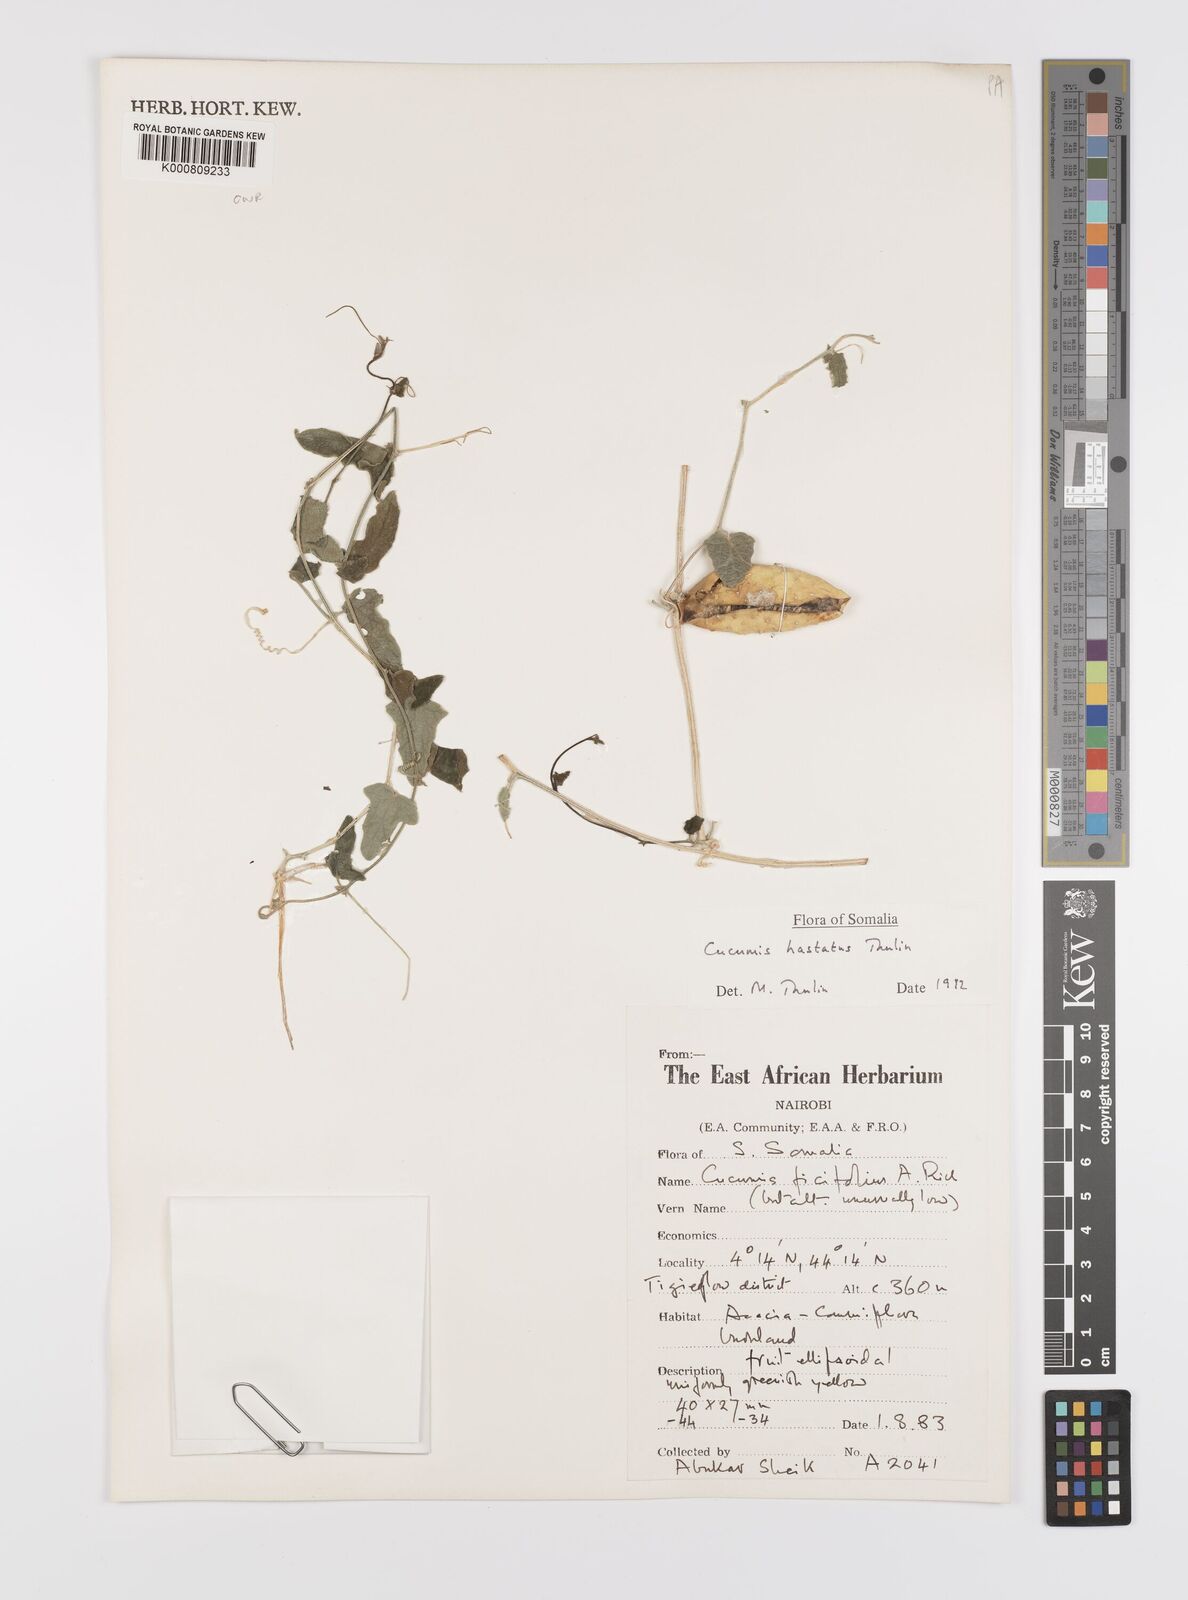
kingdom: Plantae
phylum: Tracheophyta
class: Magnoliopsida
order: Cucurbitales
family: Cucurbitaceae
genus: Cucumis
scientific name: Cucumis ficifolius
